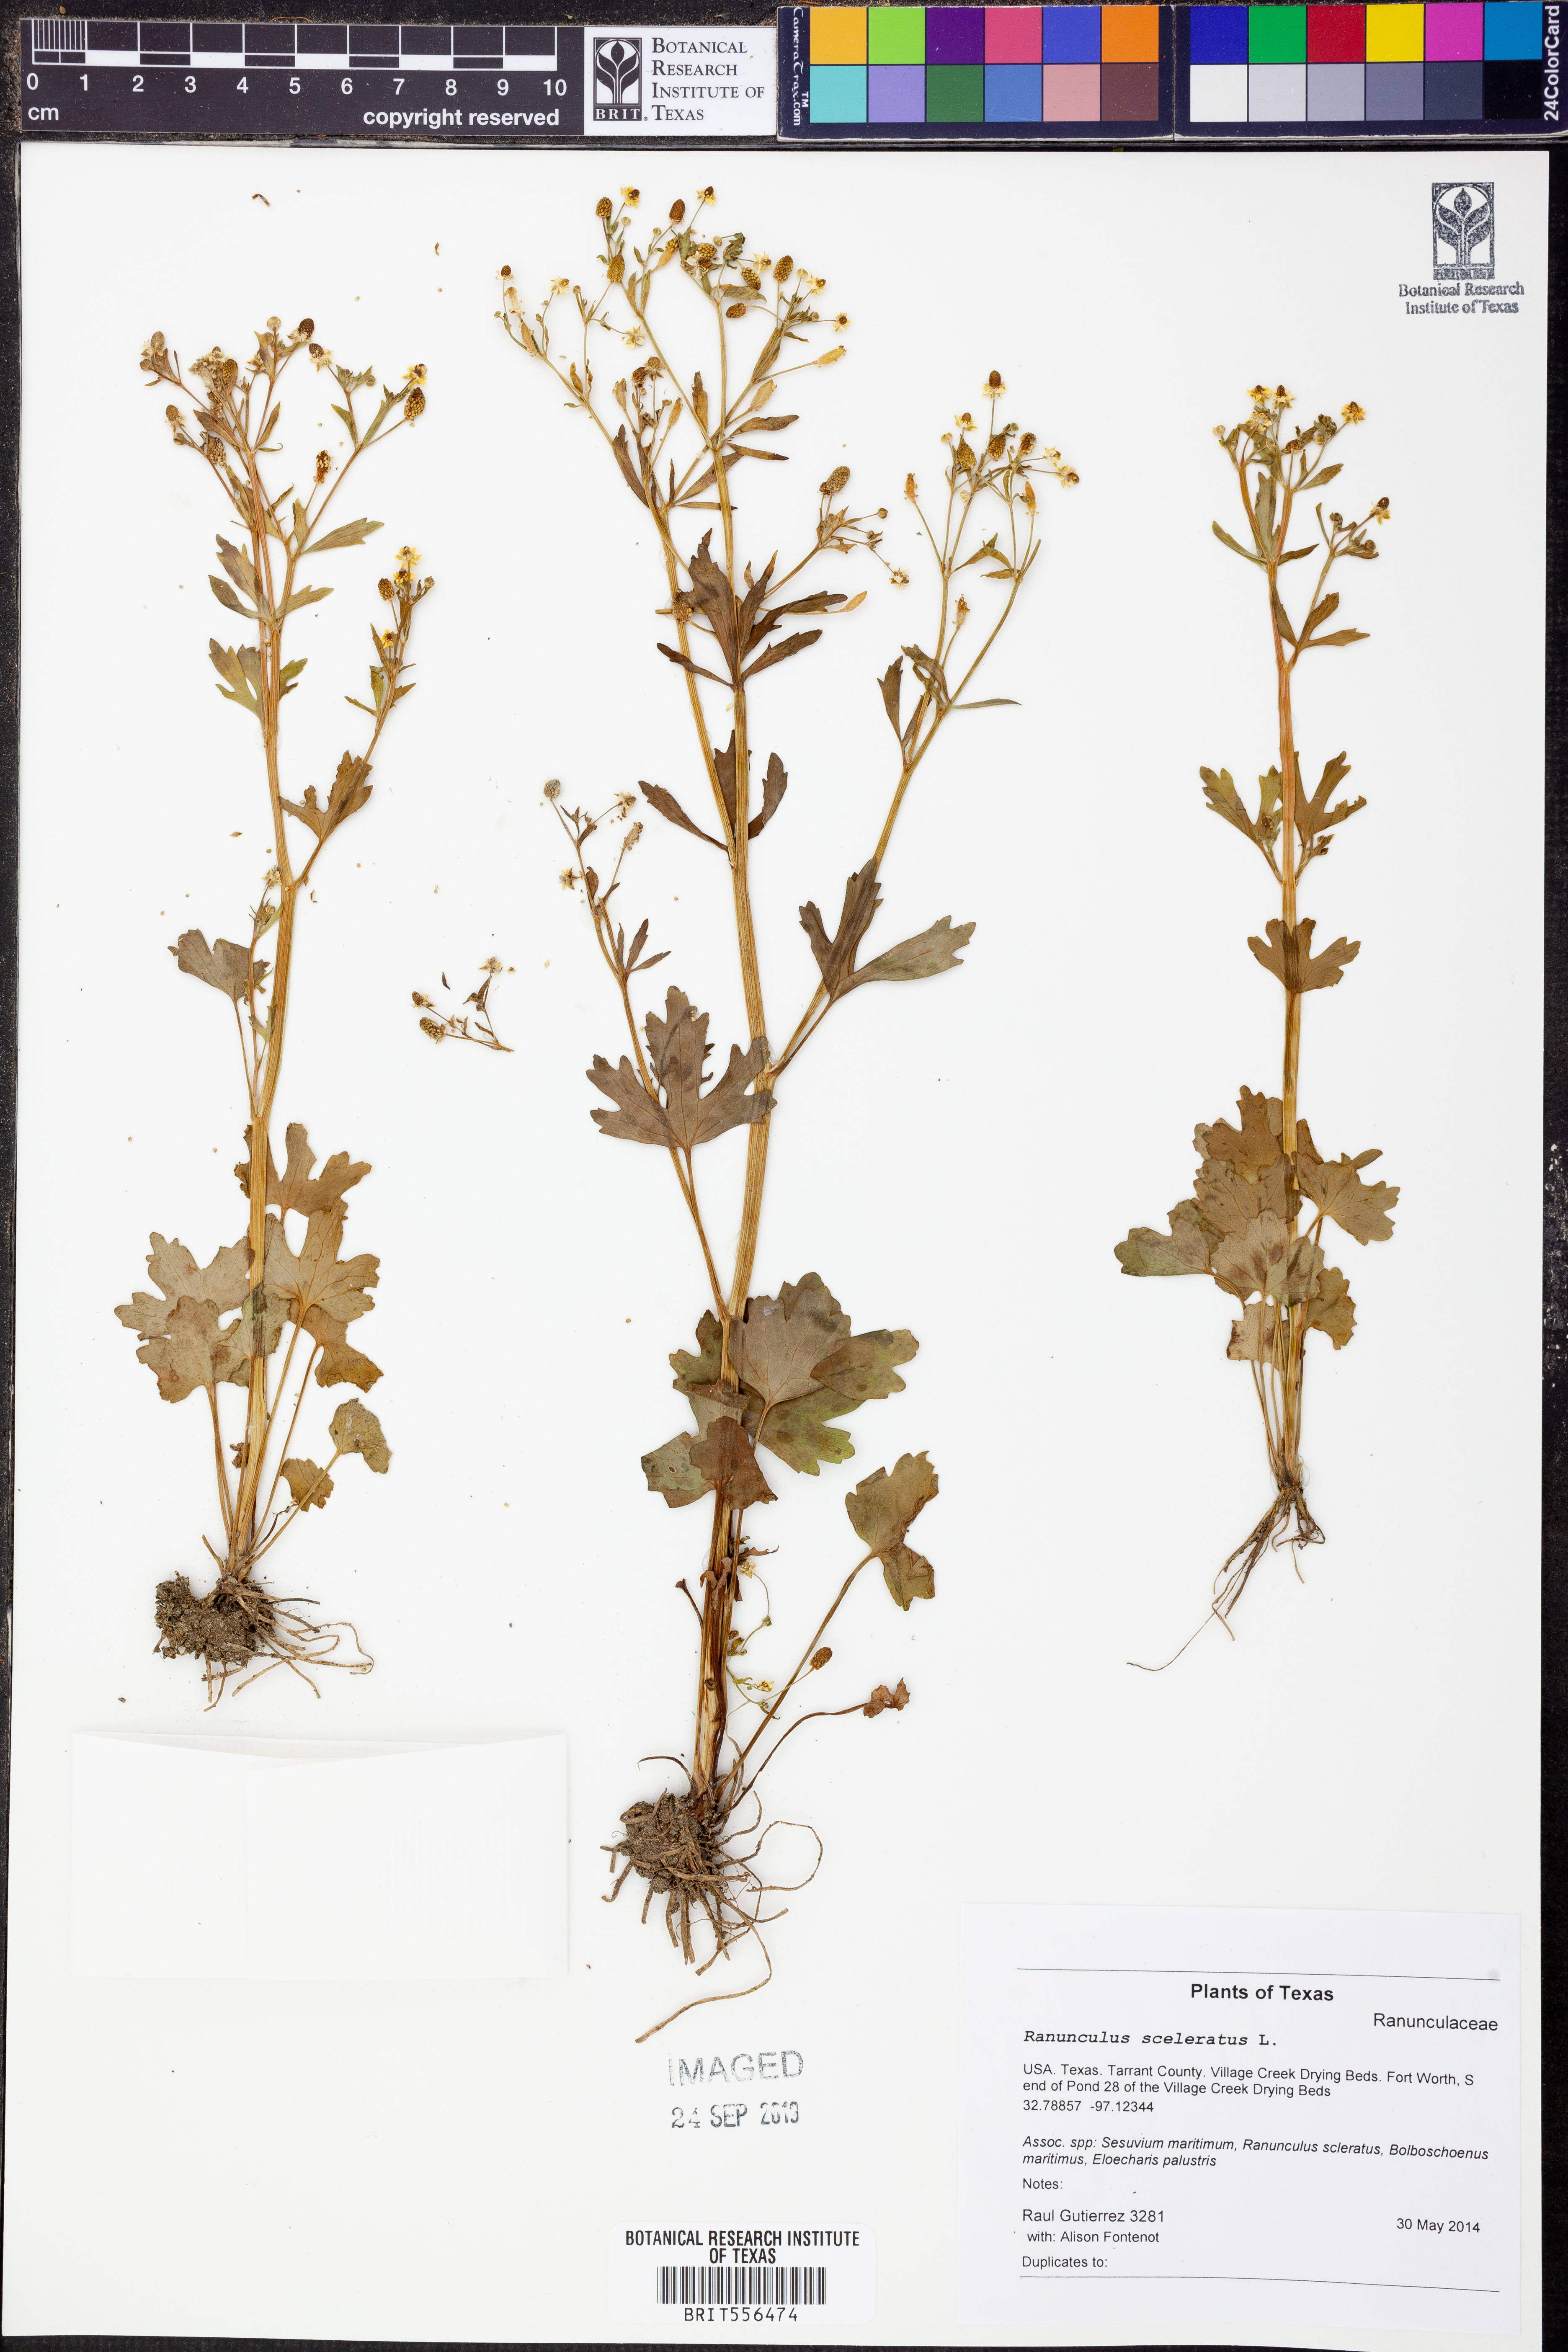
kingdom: Plantae
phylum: Tracheophyta
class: Magnoliopsida
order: Ranunculales
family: Ranunculaceae
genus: Ranunculus
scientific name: Ranunculus sceleratus
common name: Celery-leaved buttercup
